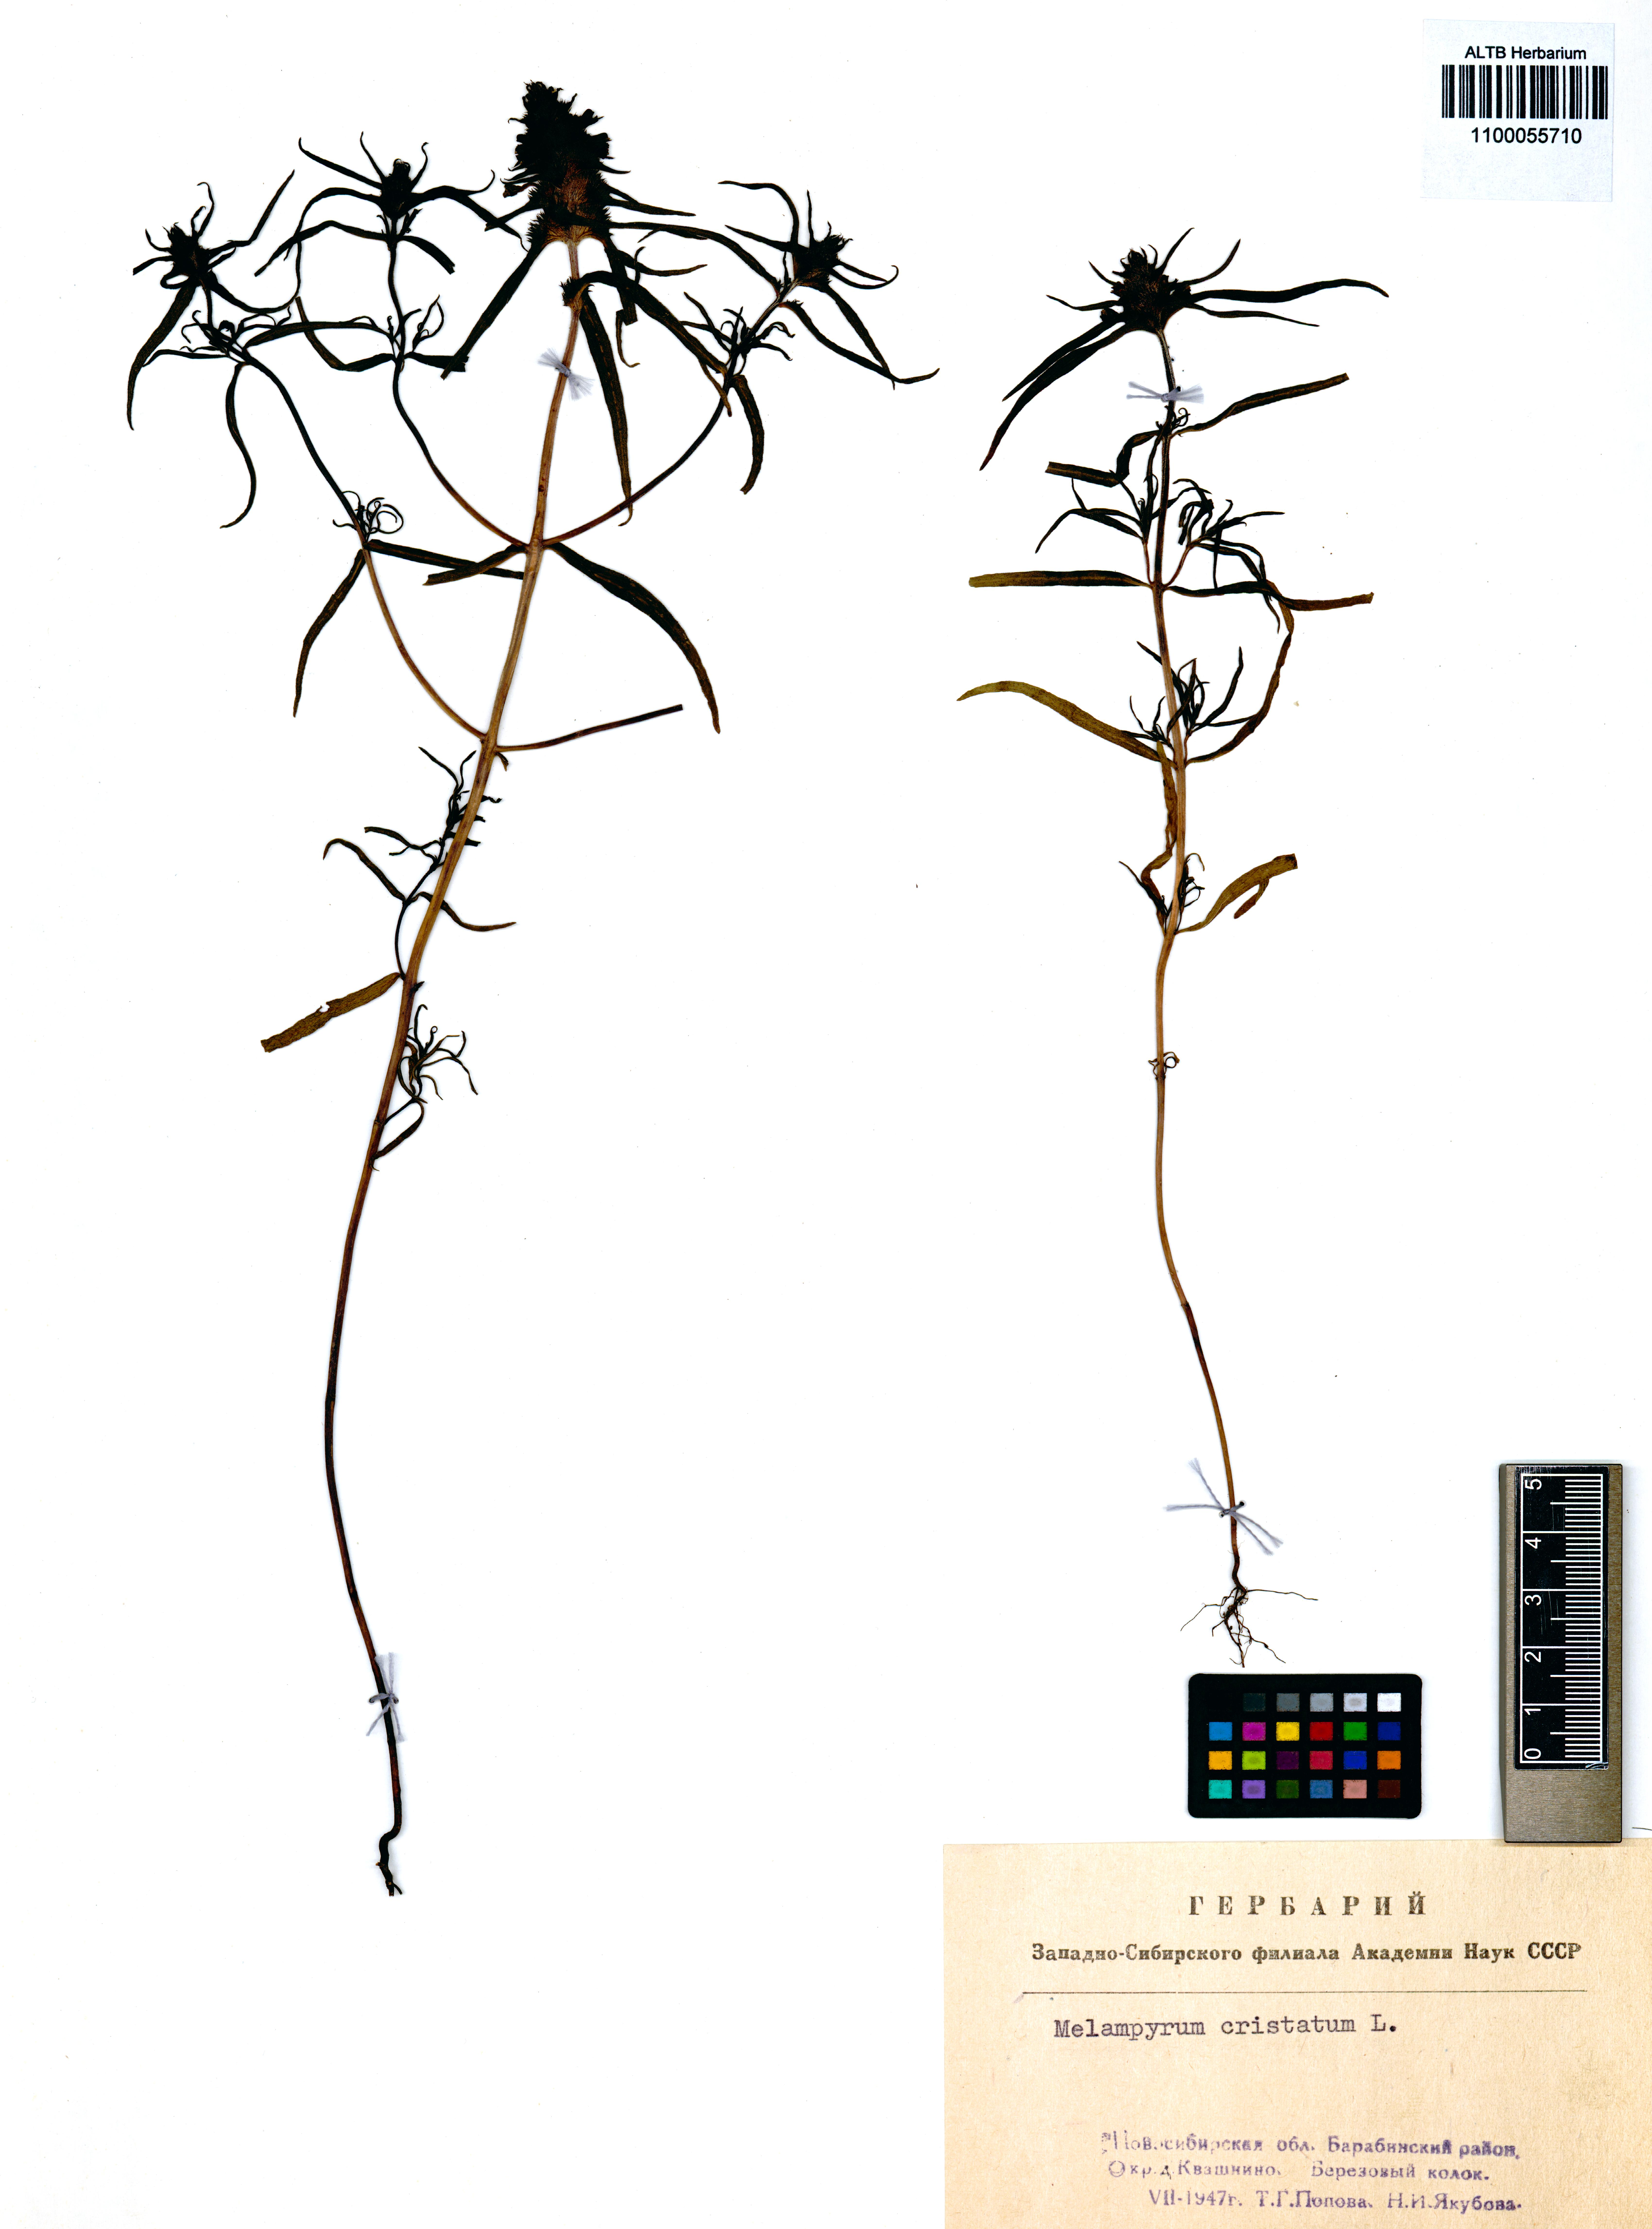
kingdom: Plantae
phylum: Tracheophyta
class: Magnoliopsida
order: Lamiales
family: Orobanchaceae
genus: Melampyrum
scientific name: Melampyrum cristatum
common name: Crested cow-wheat
